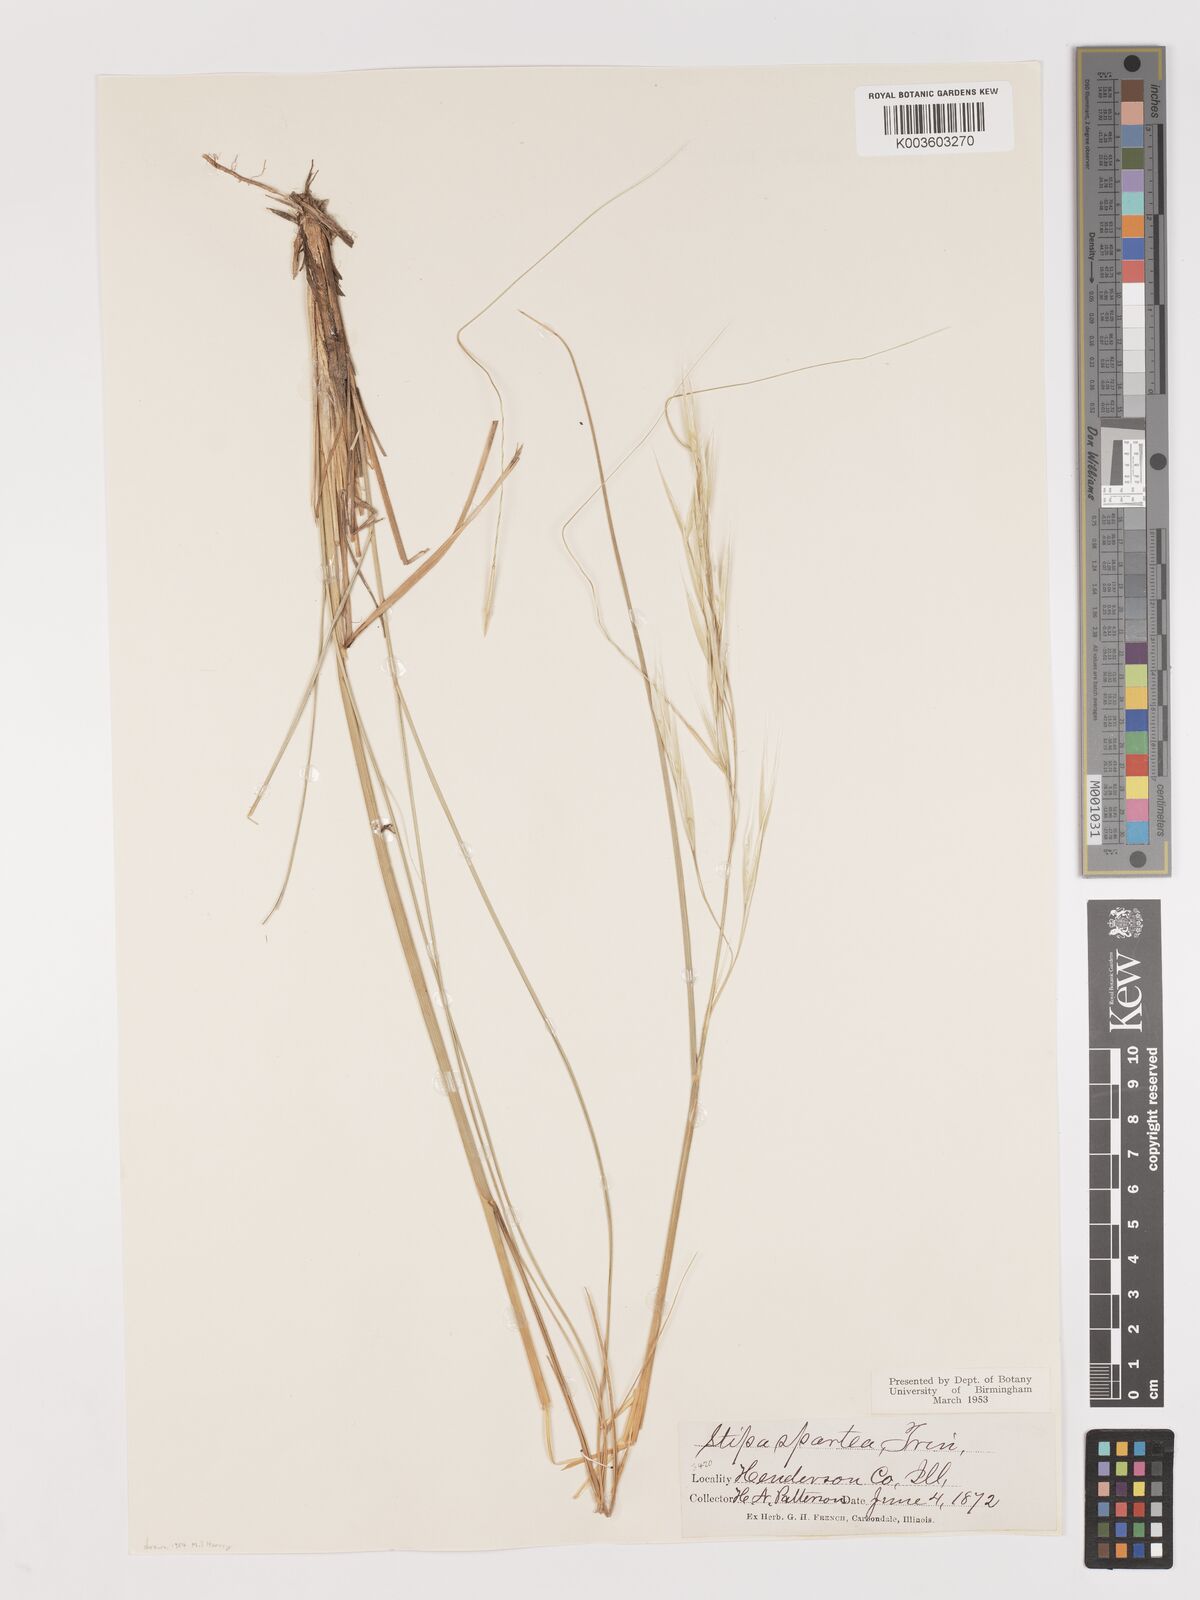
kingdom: Plantae
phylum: Tracheophyta
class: Liliopsida
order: Poales
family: Poaceae
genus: Hesperostipa
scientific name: Hesperostipa spartea
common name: Porcupine grass
